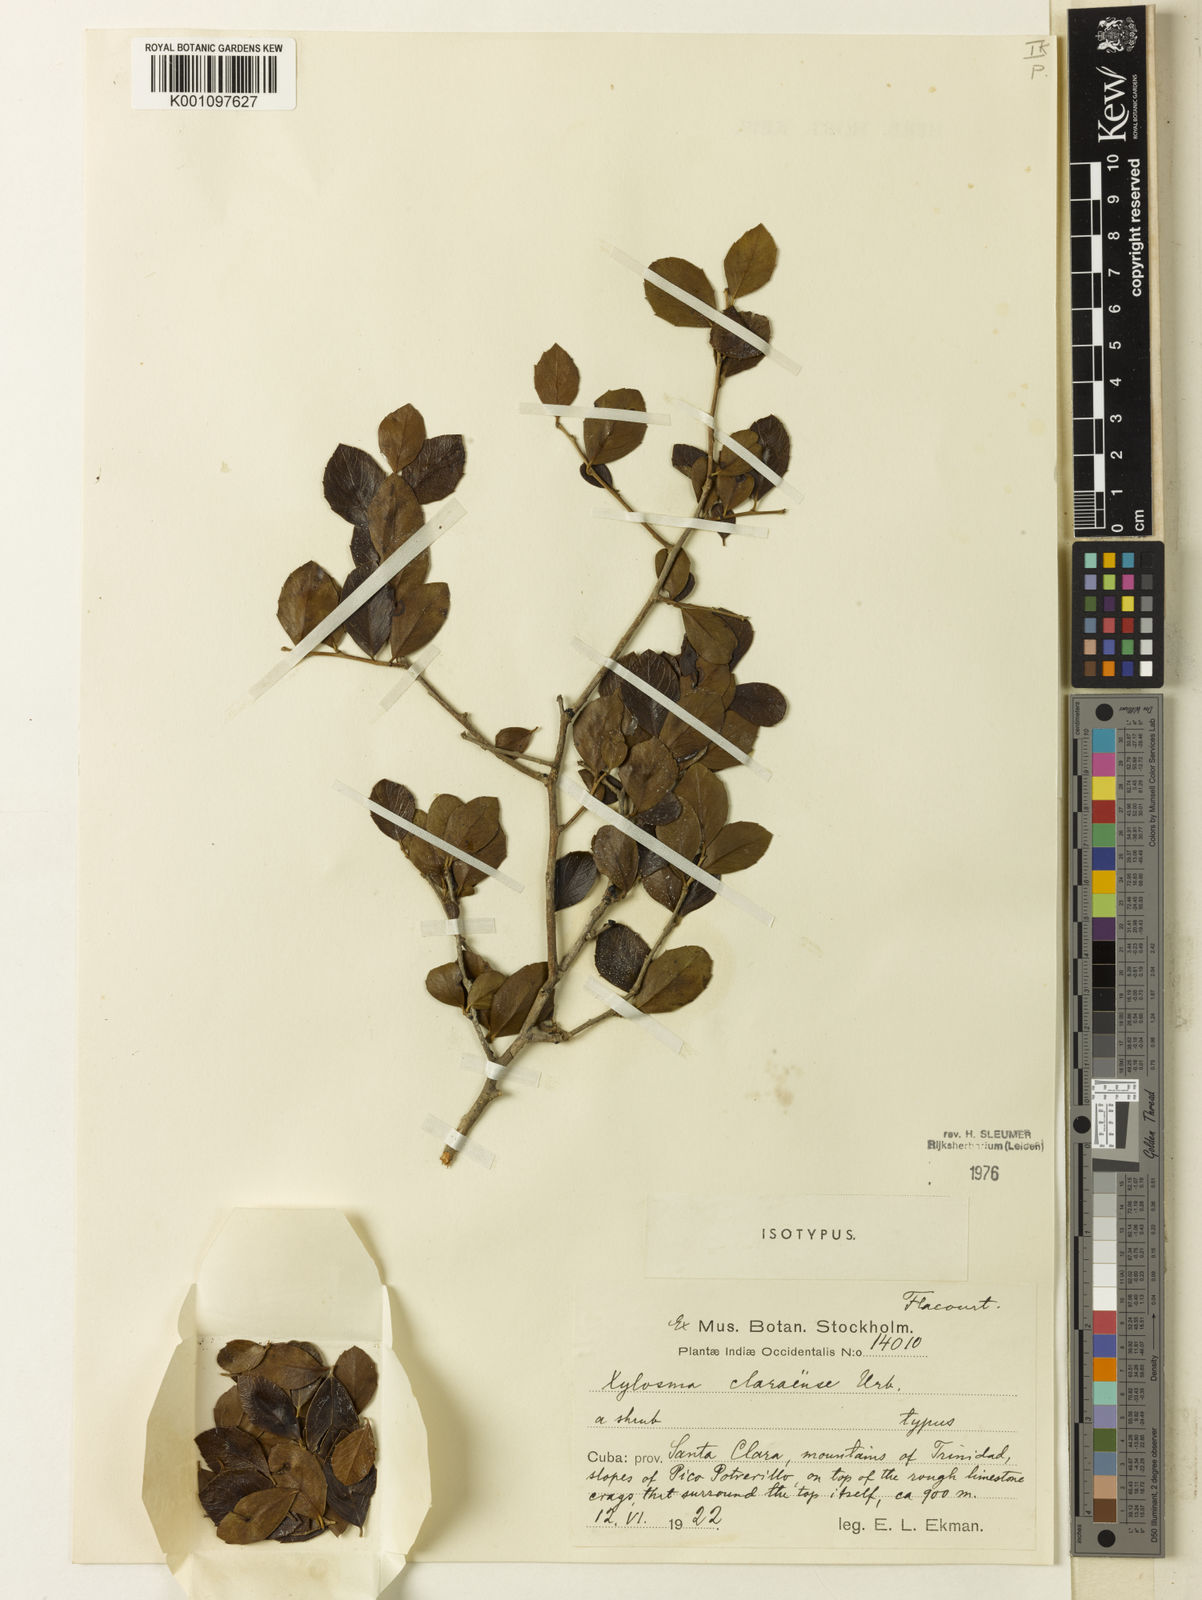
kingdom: Plantae
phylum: Tracheophyta
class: Magnoliopsida
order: Malpighiales
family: Salicaceae
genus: Xylosma
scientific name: Xylosma claraensis
